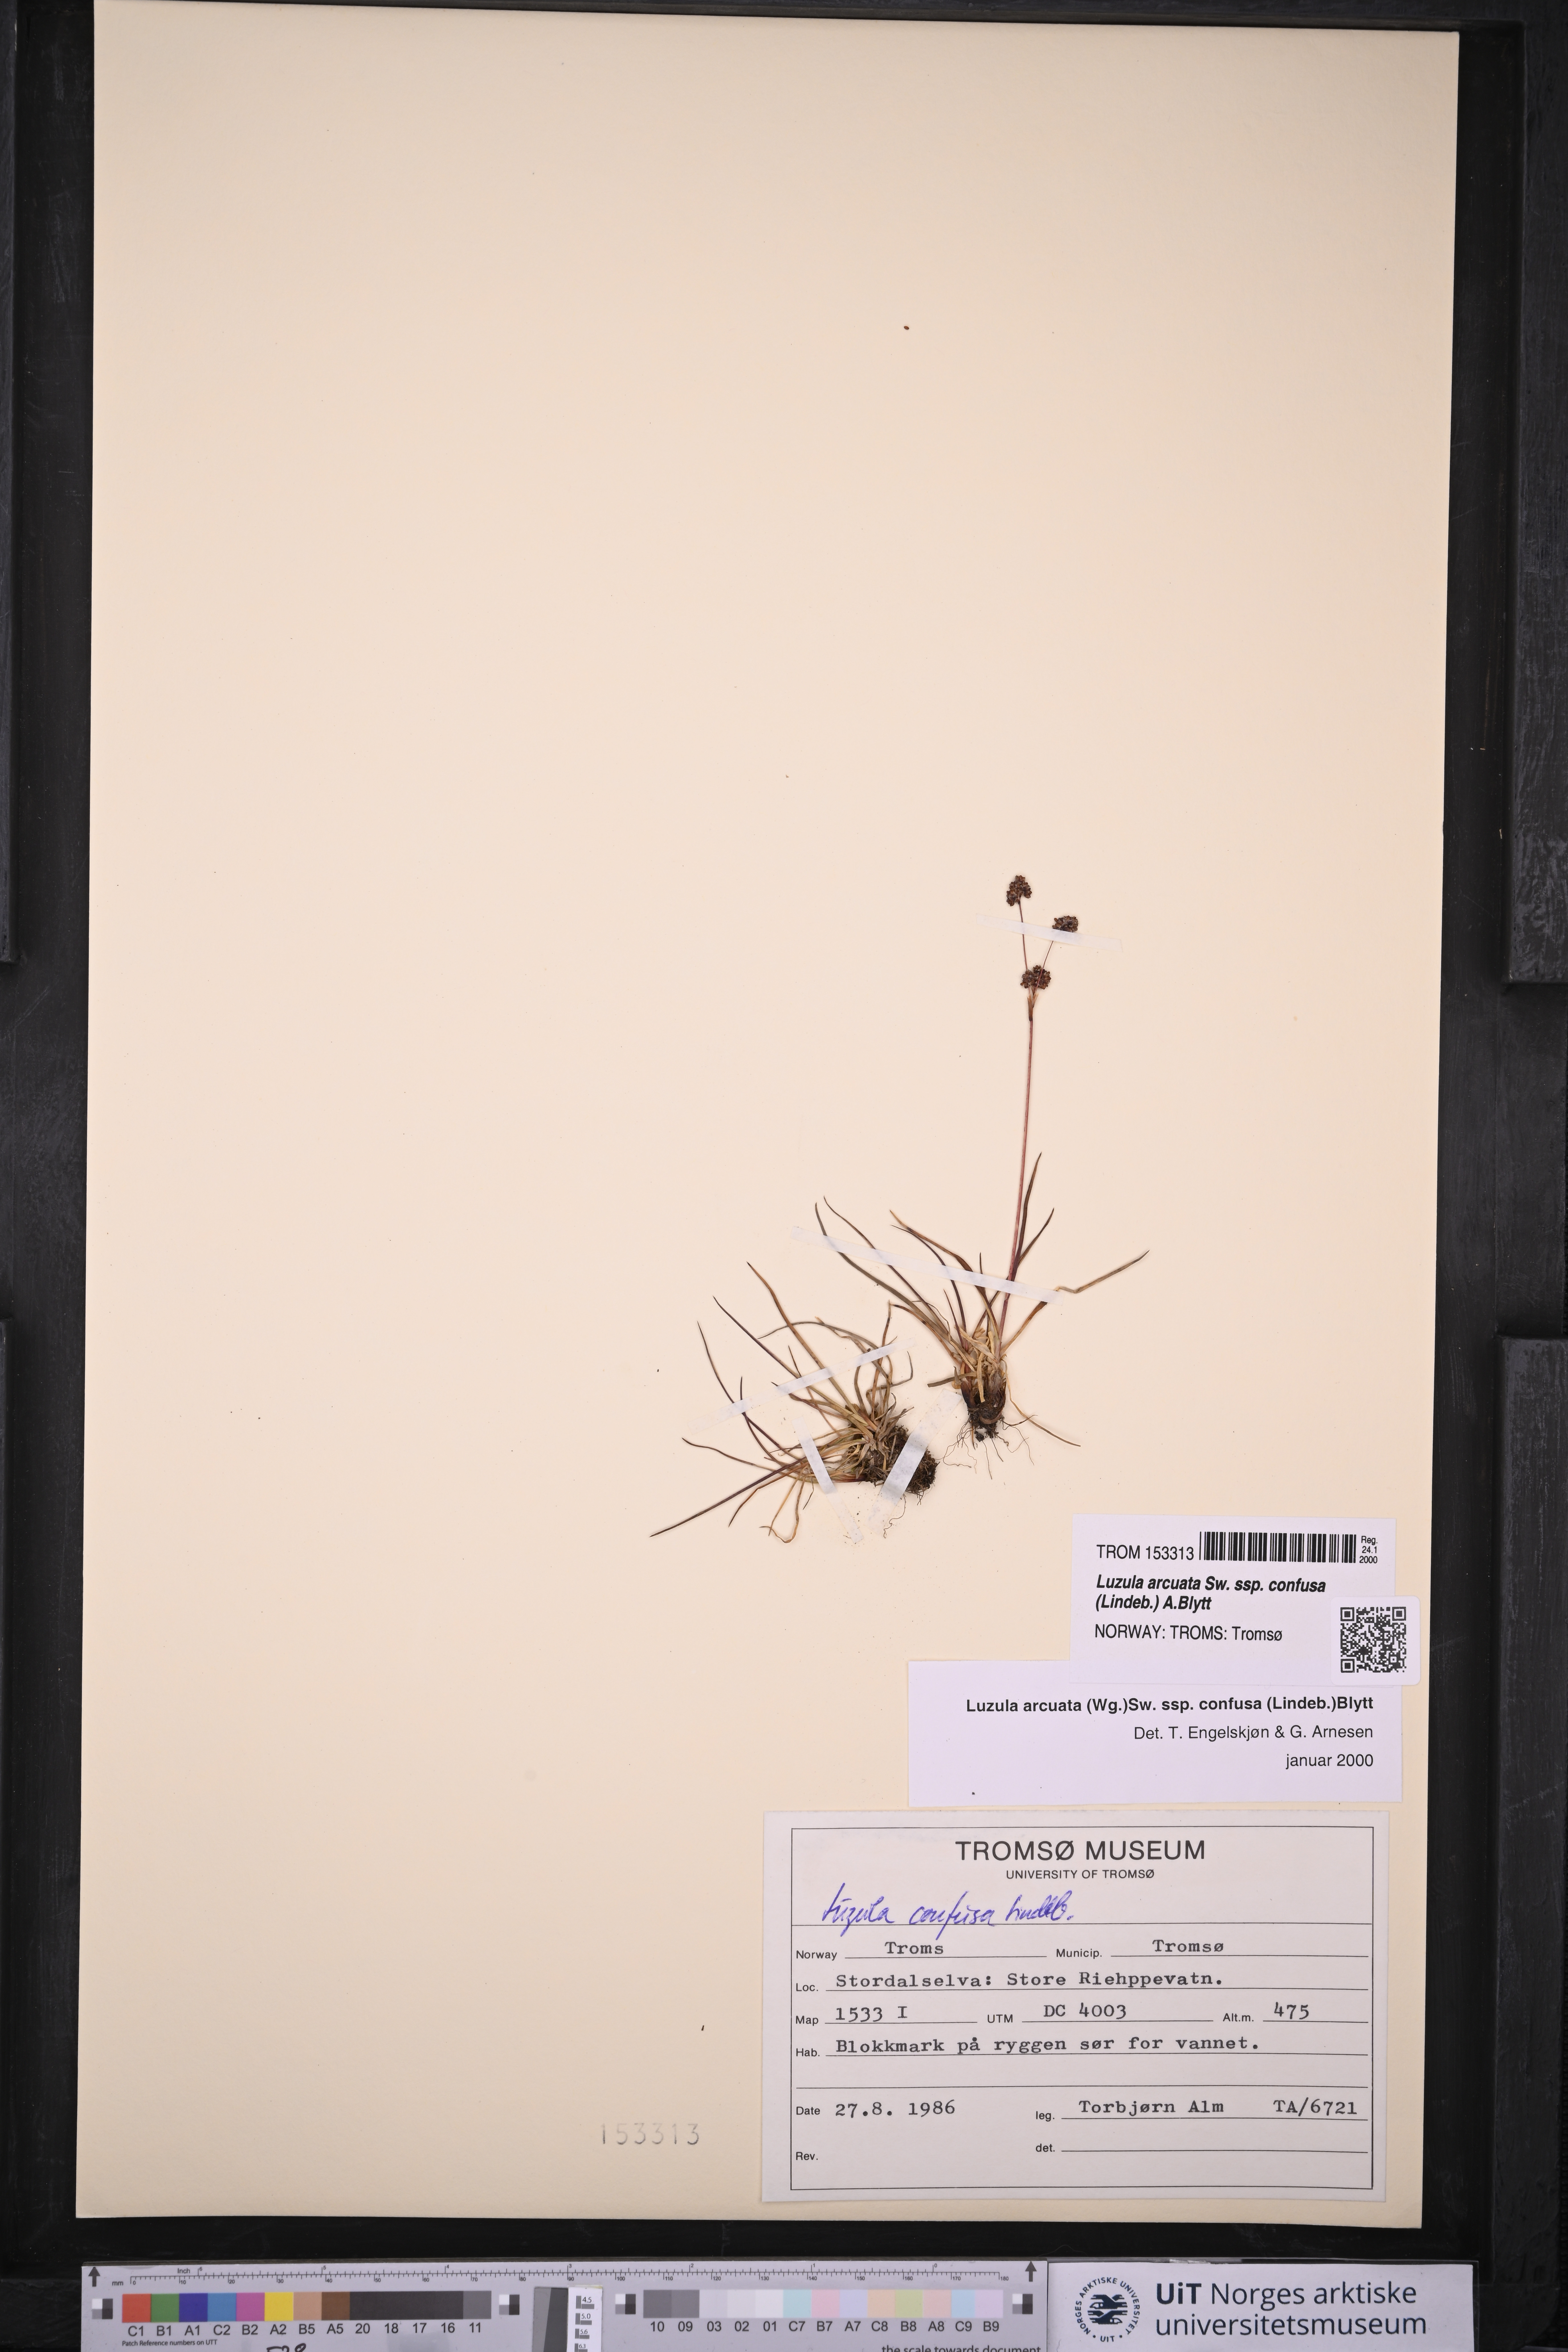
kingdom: Plantae
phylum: Tracheophyta
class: Liliopsida
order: Poales
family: Juncaceae
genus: Luzula
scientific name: Luzula confusa
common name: Northern wood rush
